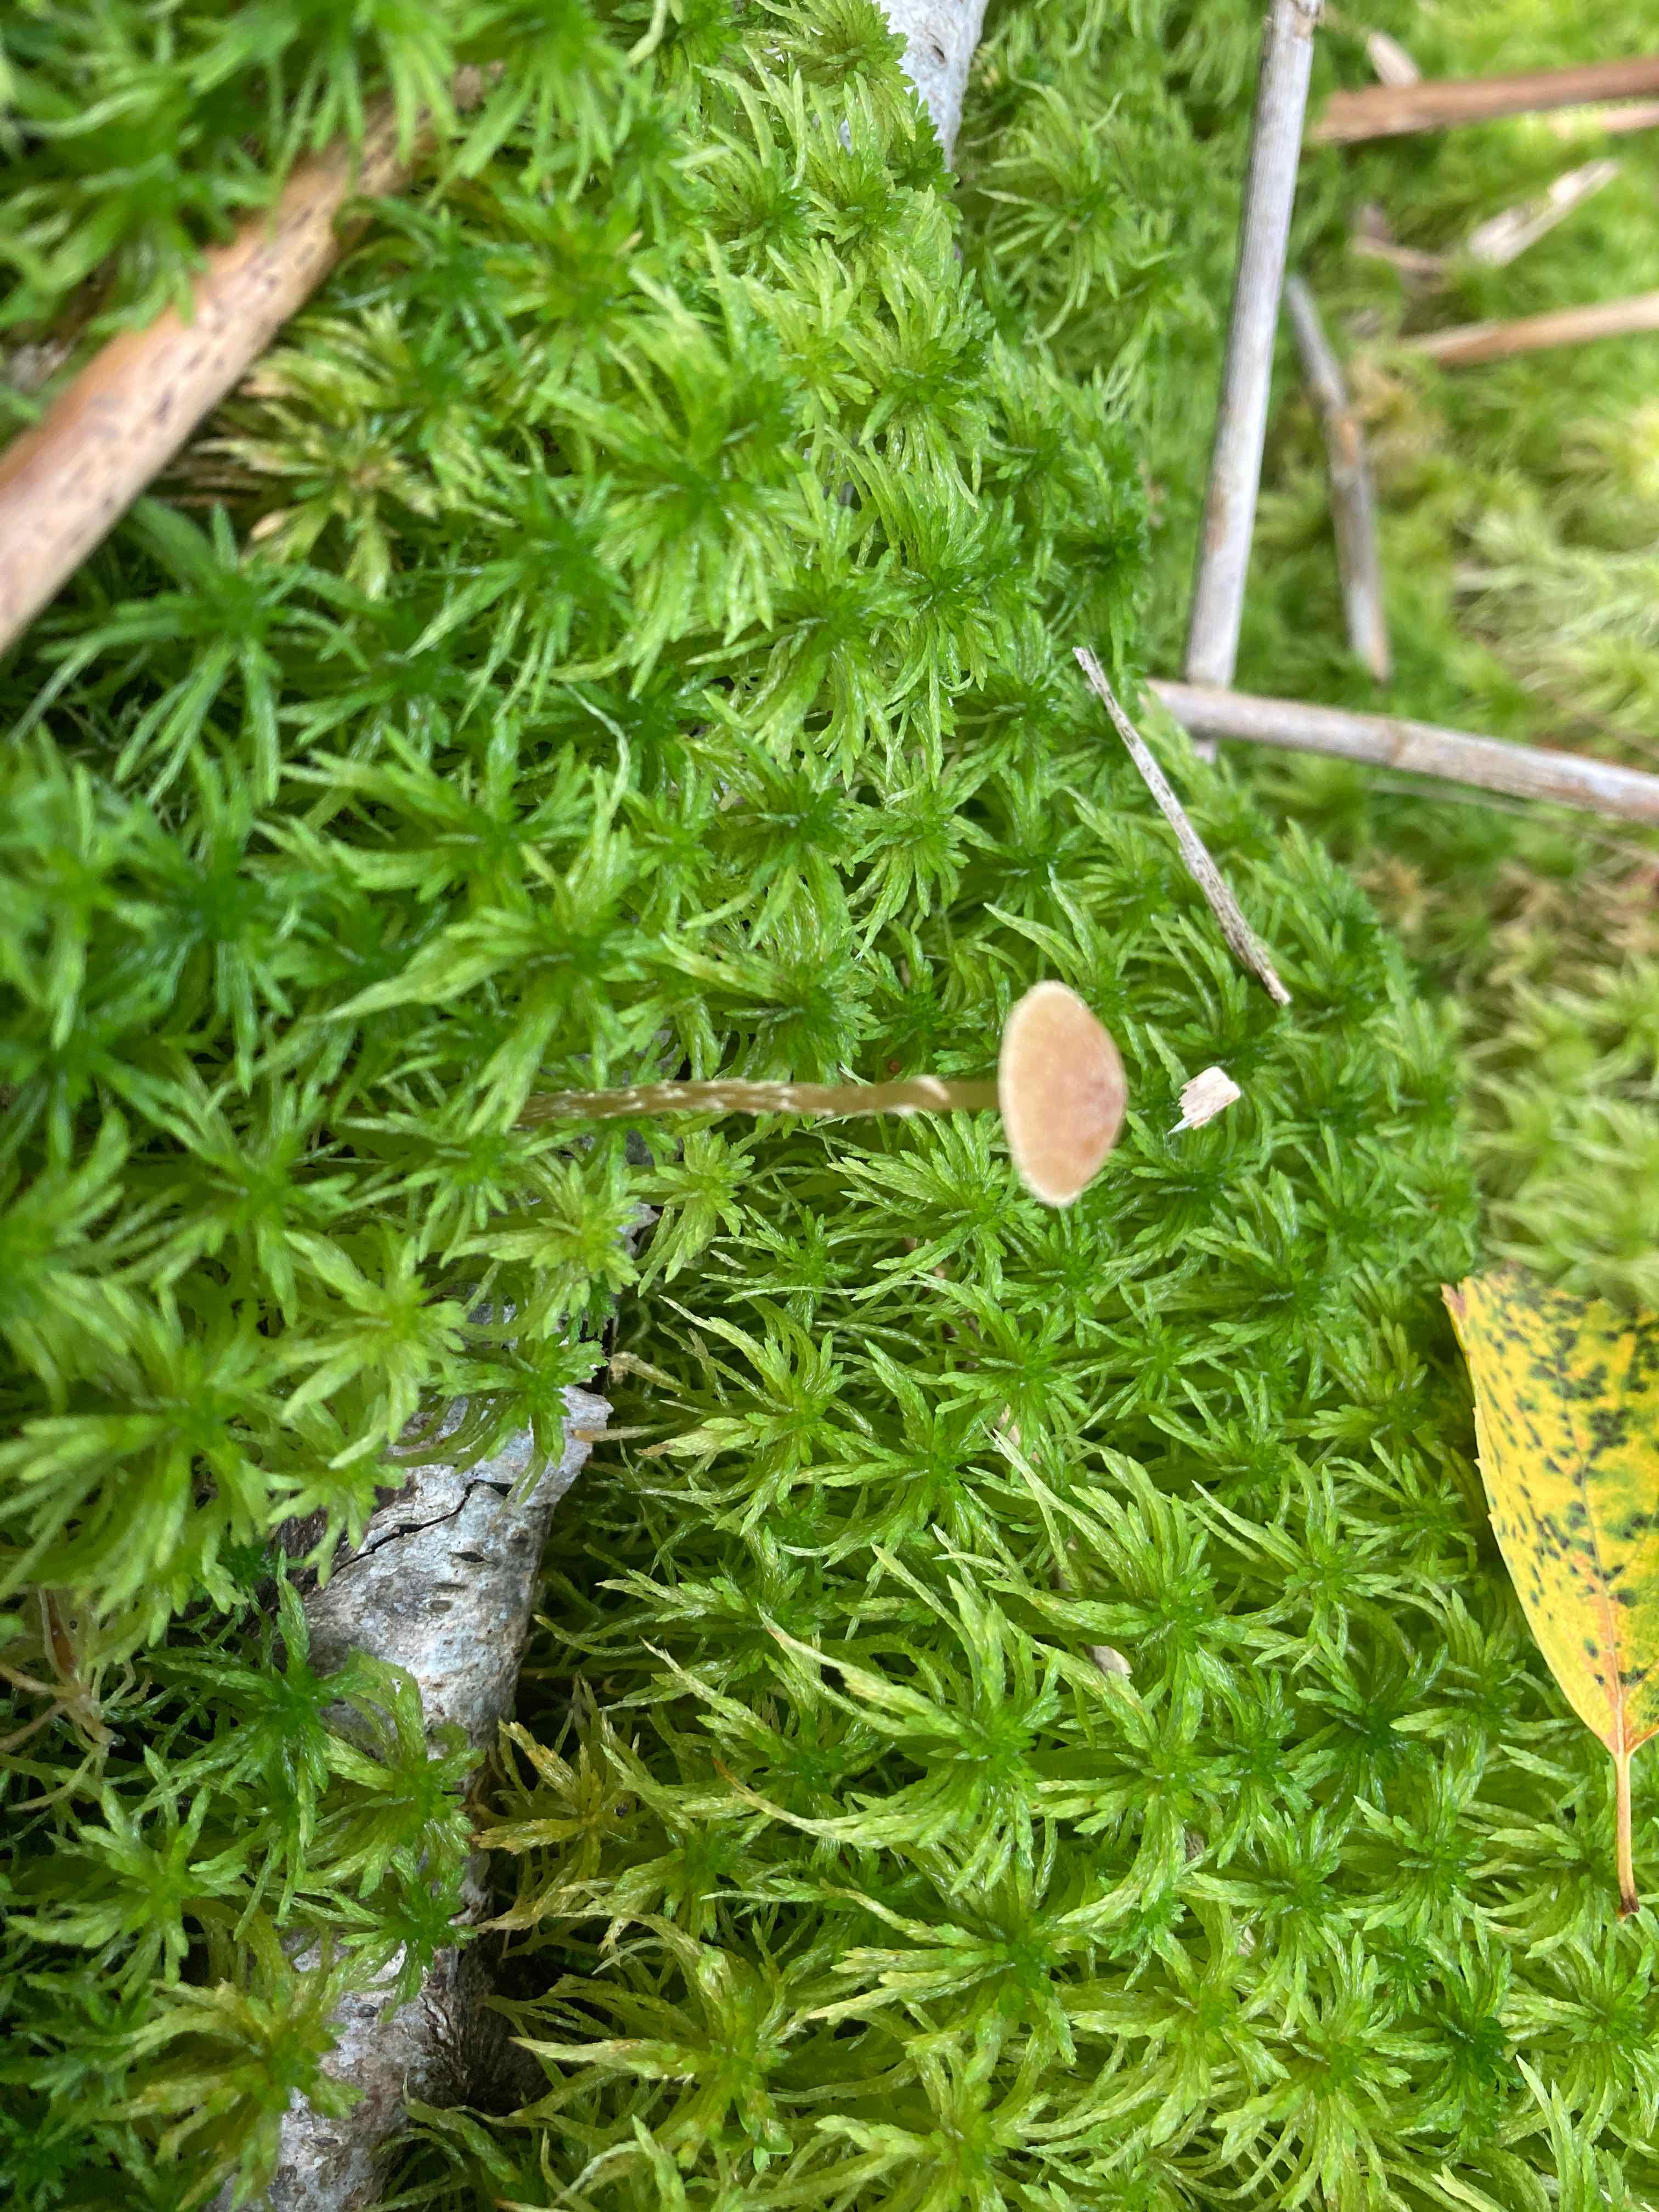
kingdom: Fungi
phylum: Basidiomycota
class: Agaricomycetes
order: Agaricales
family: Hymenogastraceae
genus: Galerina
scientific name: Galerina paludosa
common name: mose-hjelmhat
